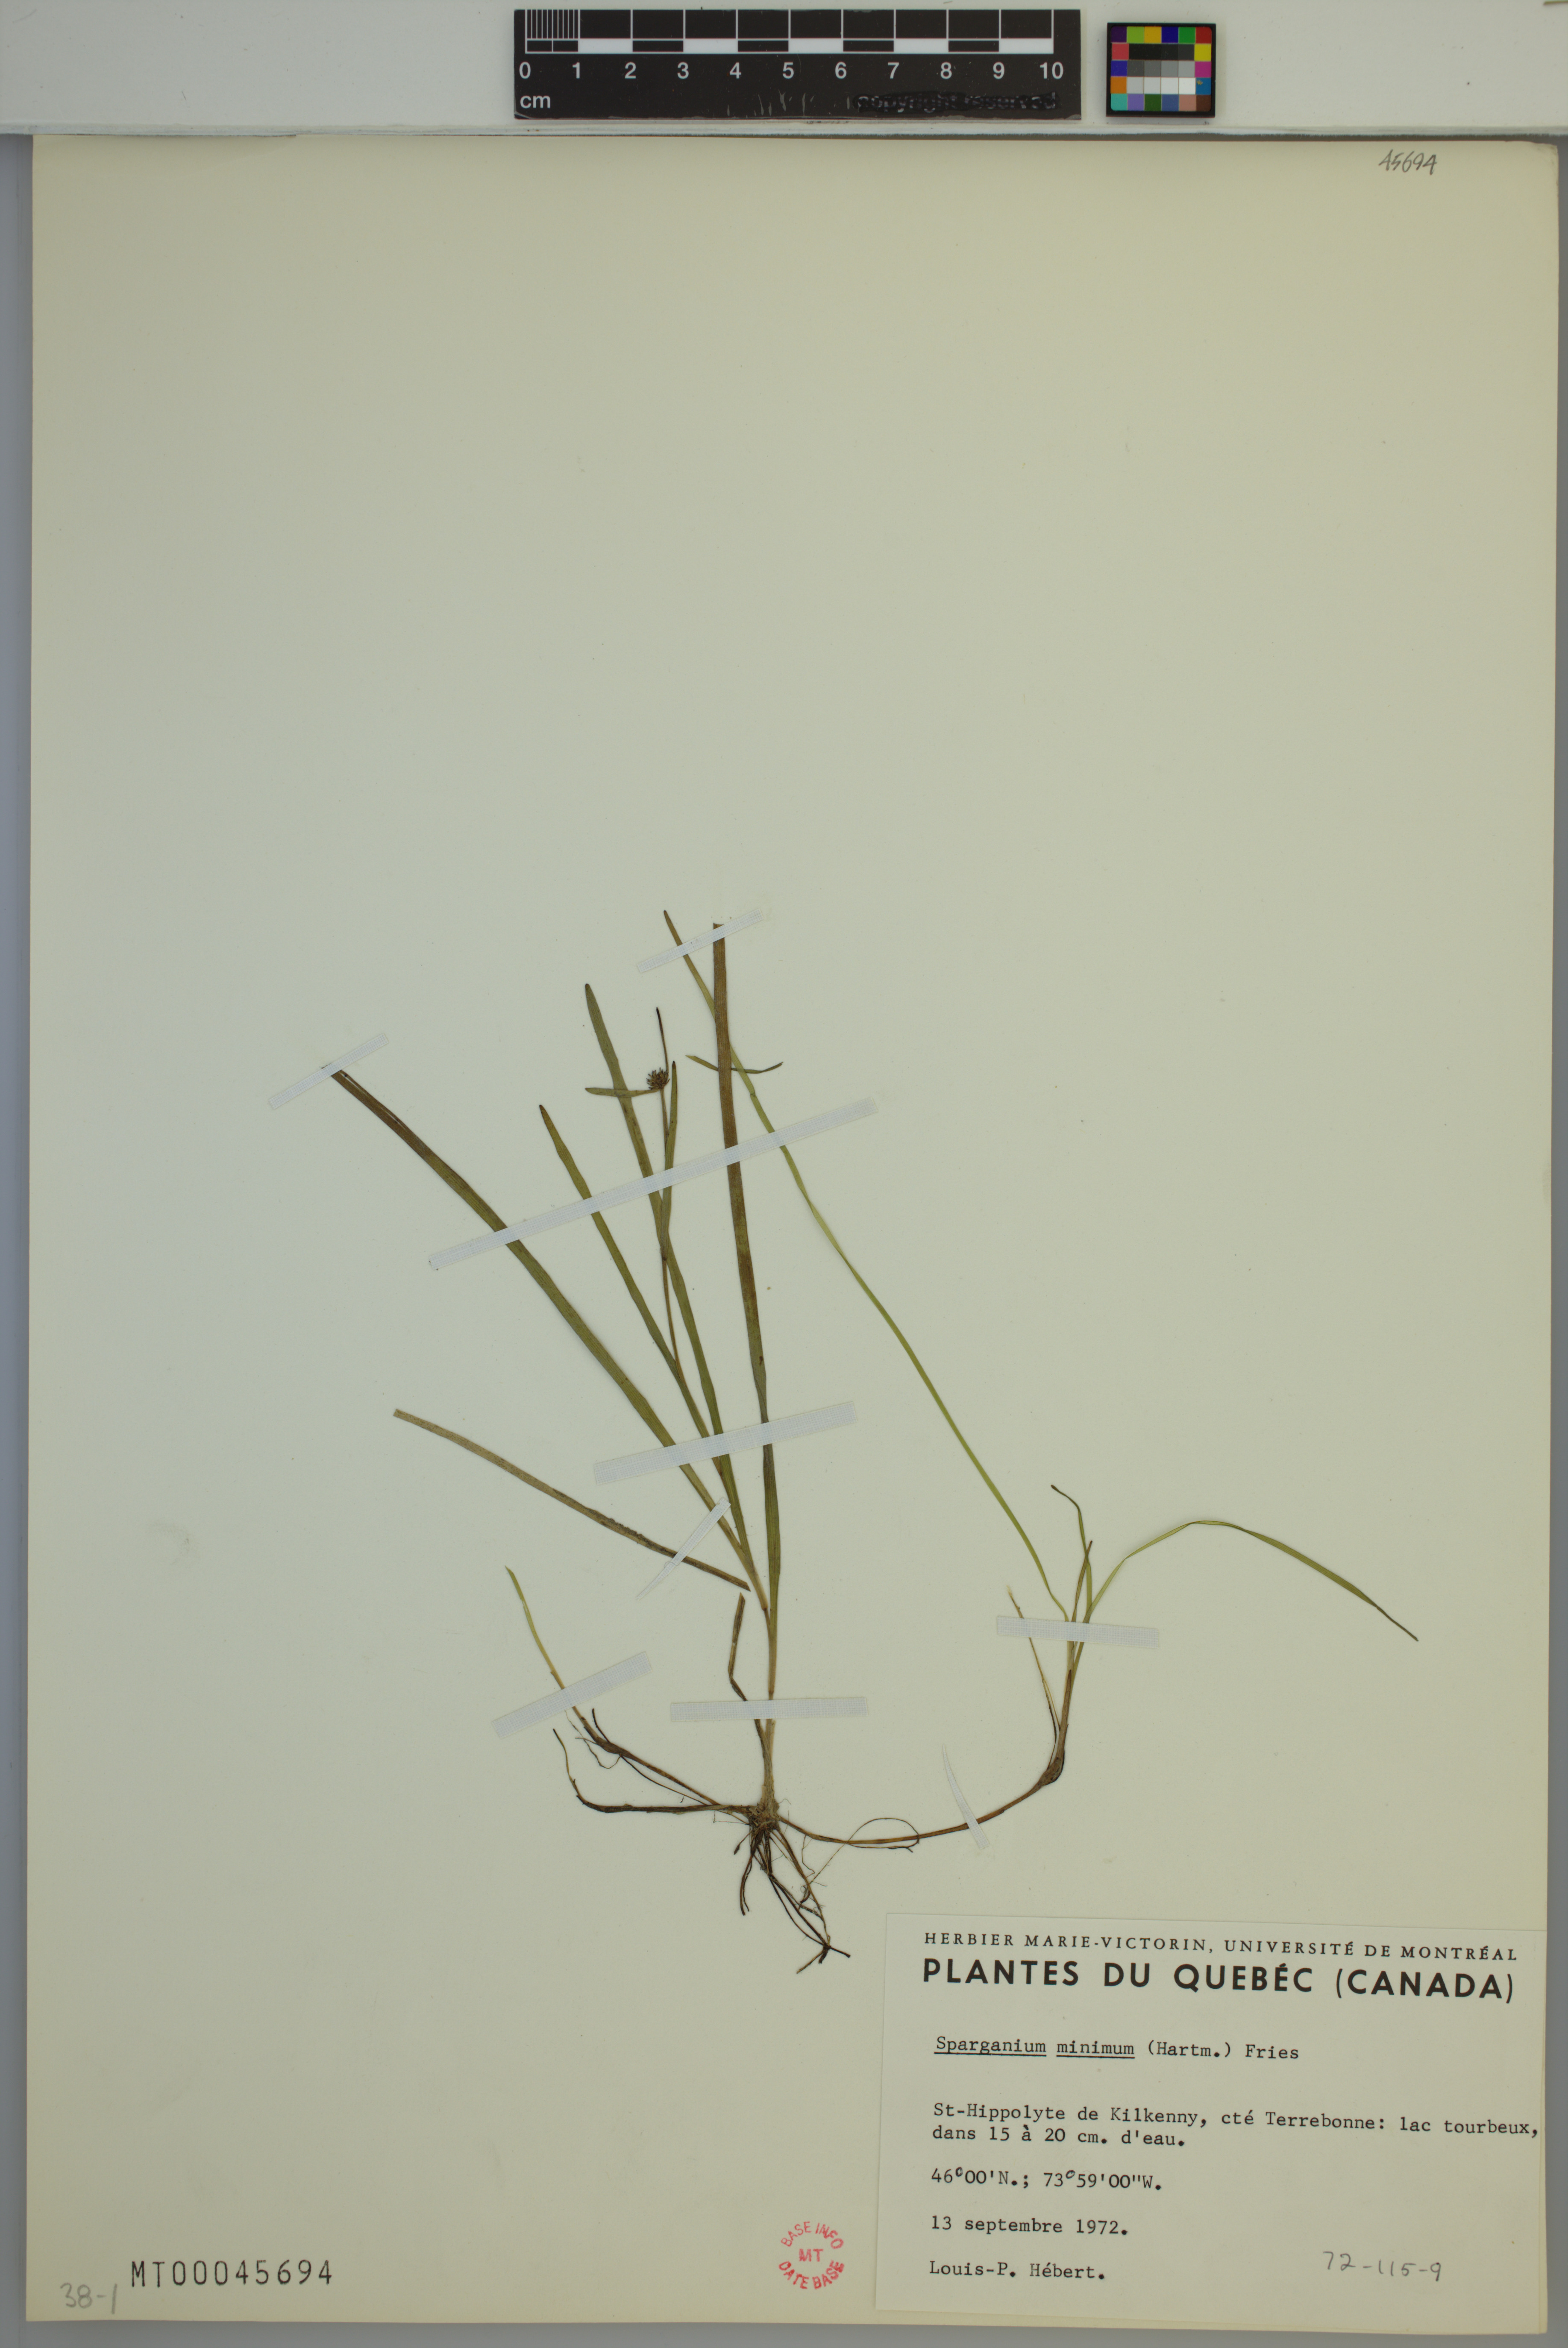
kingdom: Plantae
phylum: Tracheophyta
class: Liliopsida
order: Poales
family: Typhaceae
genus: Sparganium
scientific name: Sparganium natans
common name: Least bur-reed
